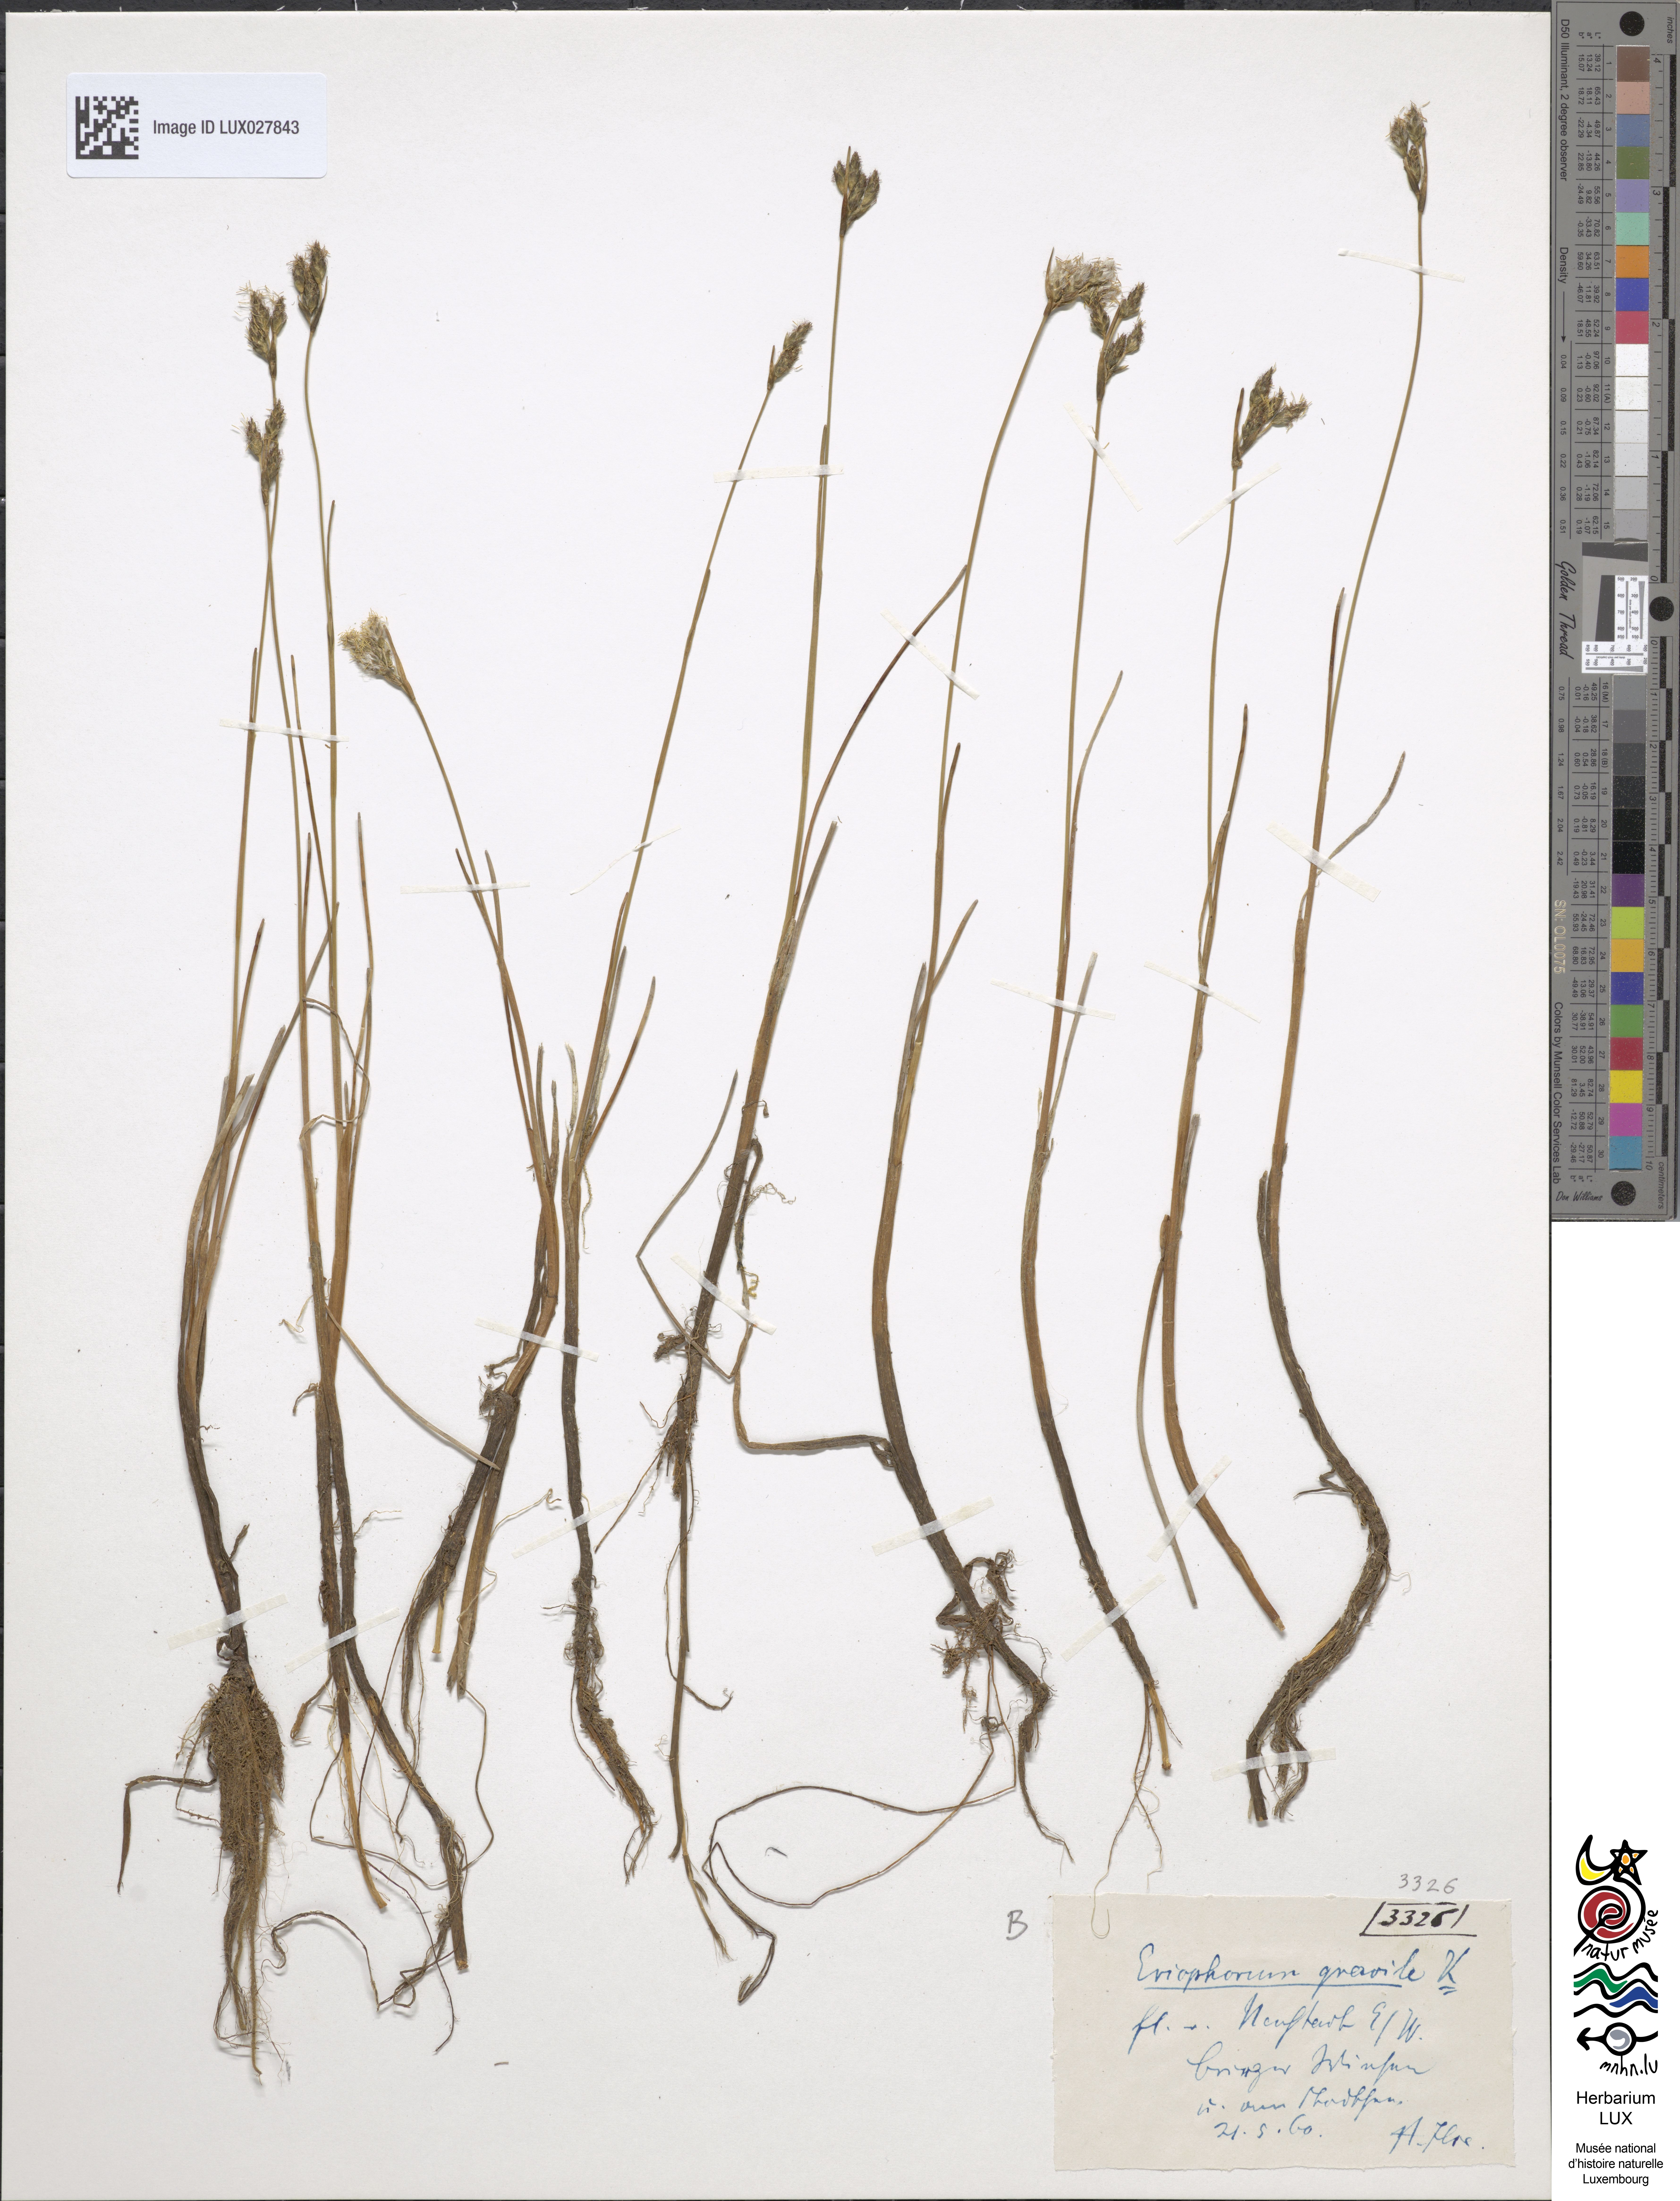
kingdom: Plantae
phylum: Tracheophyta
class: Liliopsida
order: Poales
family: Cyperaceae
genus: Eriophorum
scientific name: Eriophorum gracile
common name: Slender cottongrass
